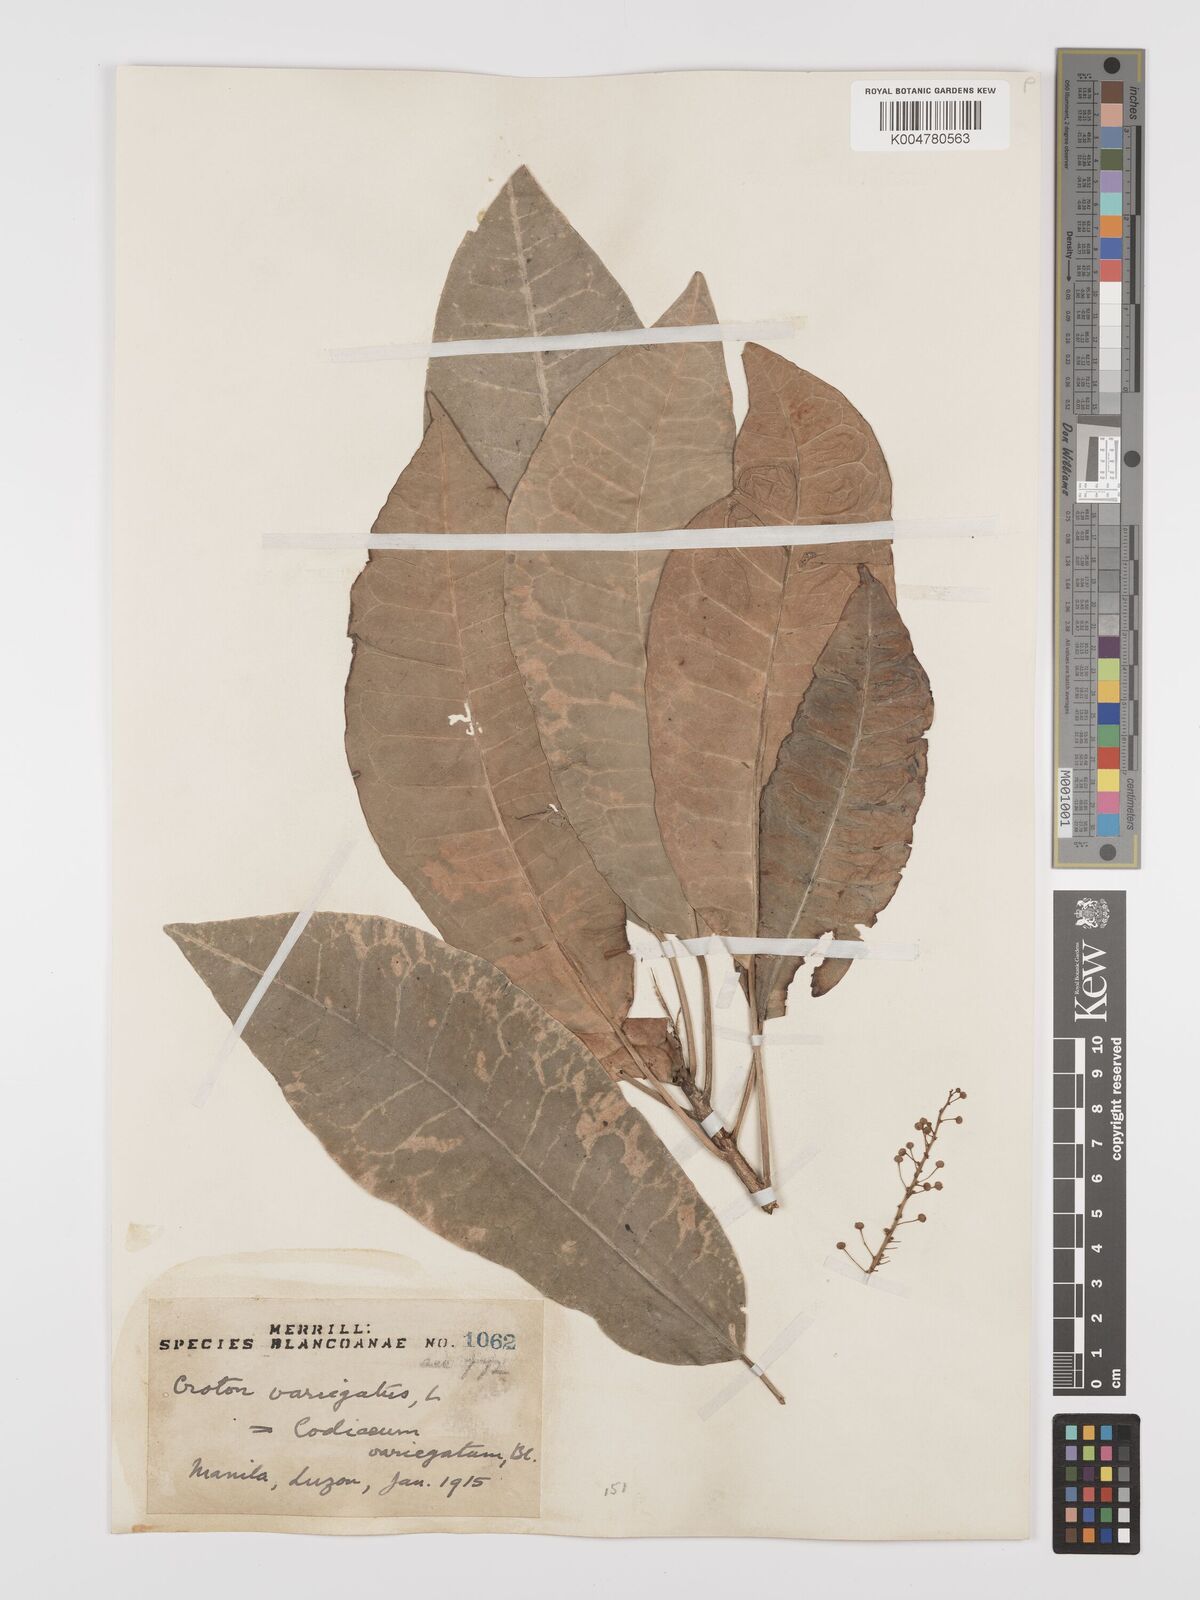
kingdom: Plantae
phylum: Tracheophyta
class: Magnoliopsida
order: Malpighiales
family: Euphorbiaceae
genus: Codiaeum
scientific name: Codiaeum variegatum
